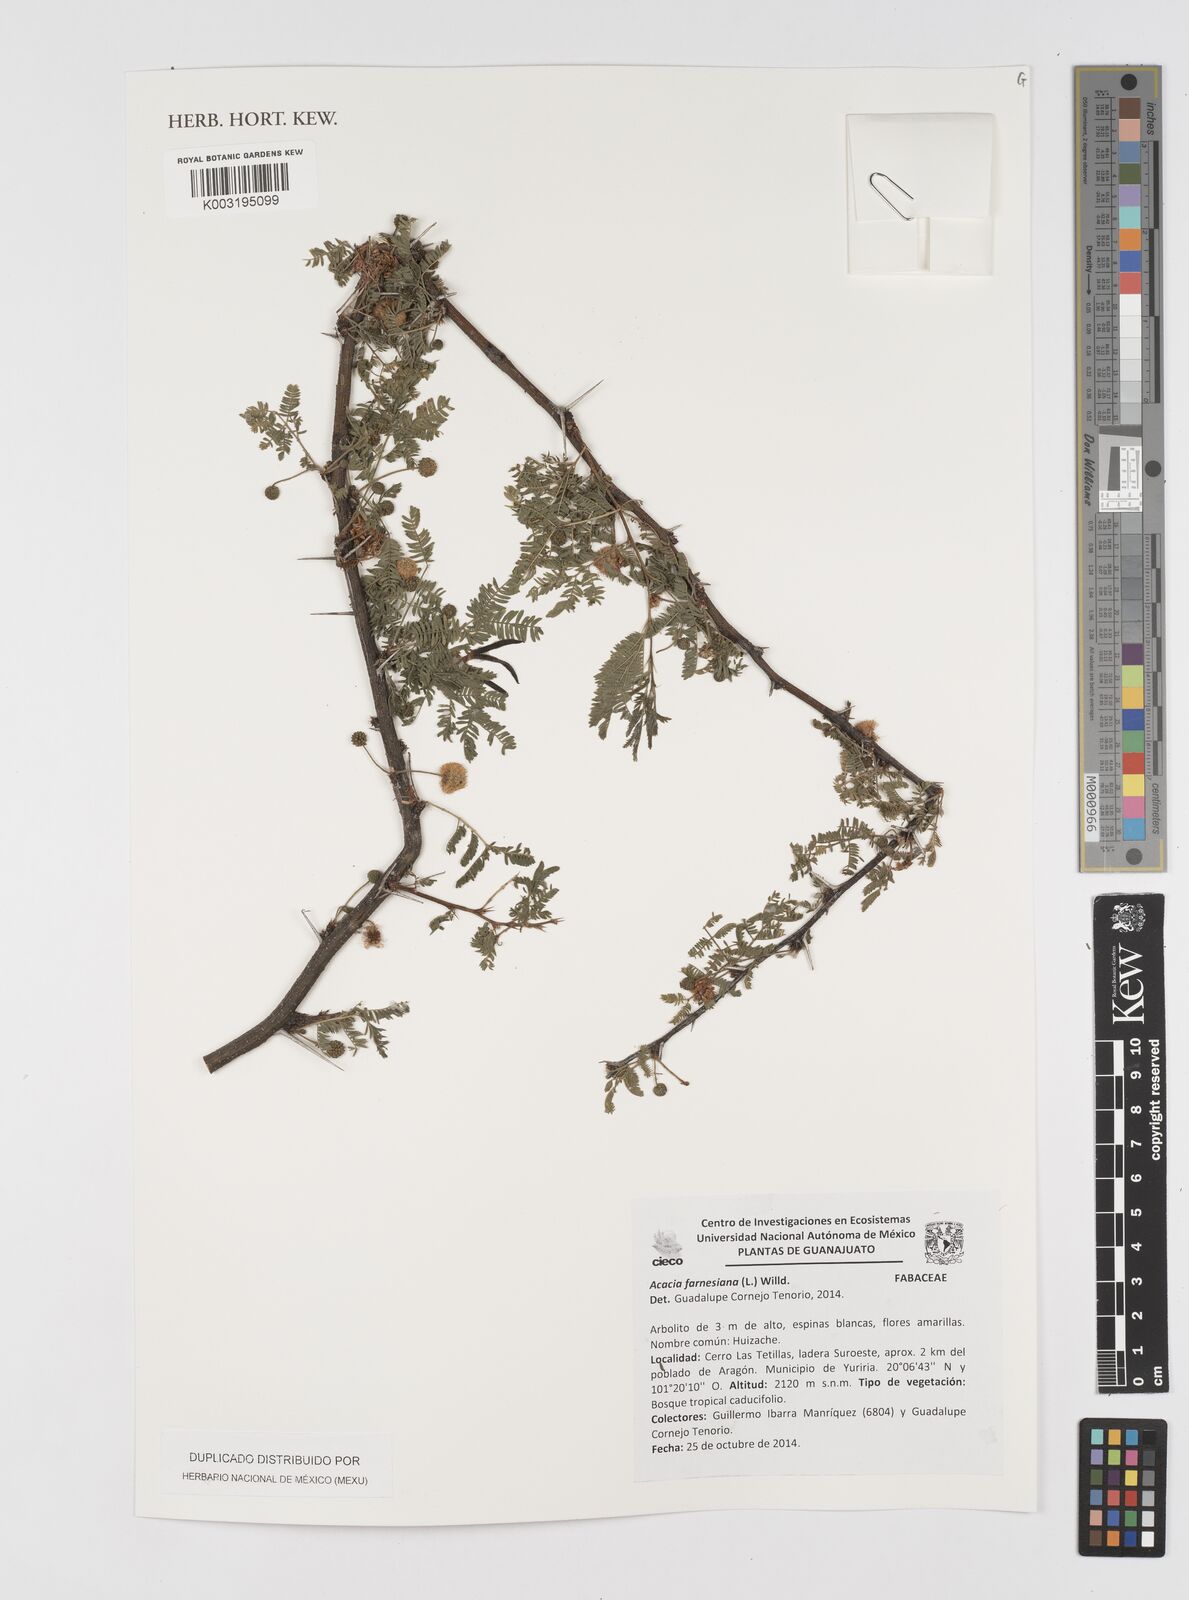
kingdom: Plantae
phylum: Tracheophyta
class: Magnoliopsida
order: Fabales
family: Fabaceae
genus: Vachellia
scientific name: Vachellia farnesiana
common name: Sweet acacia
